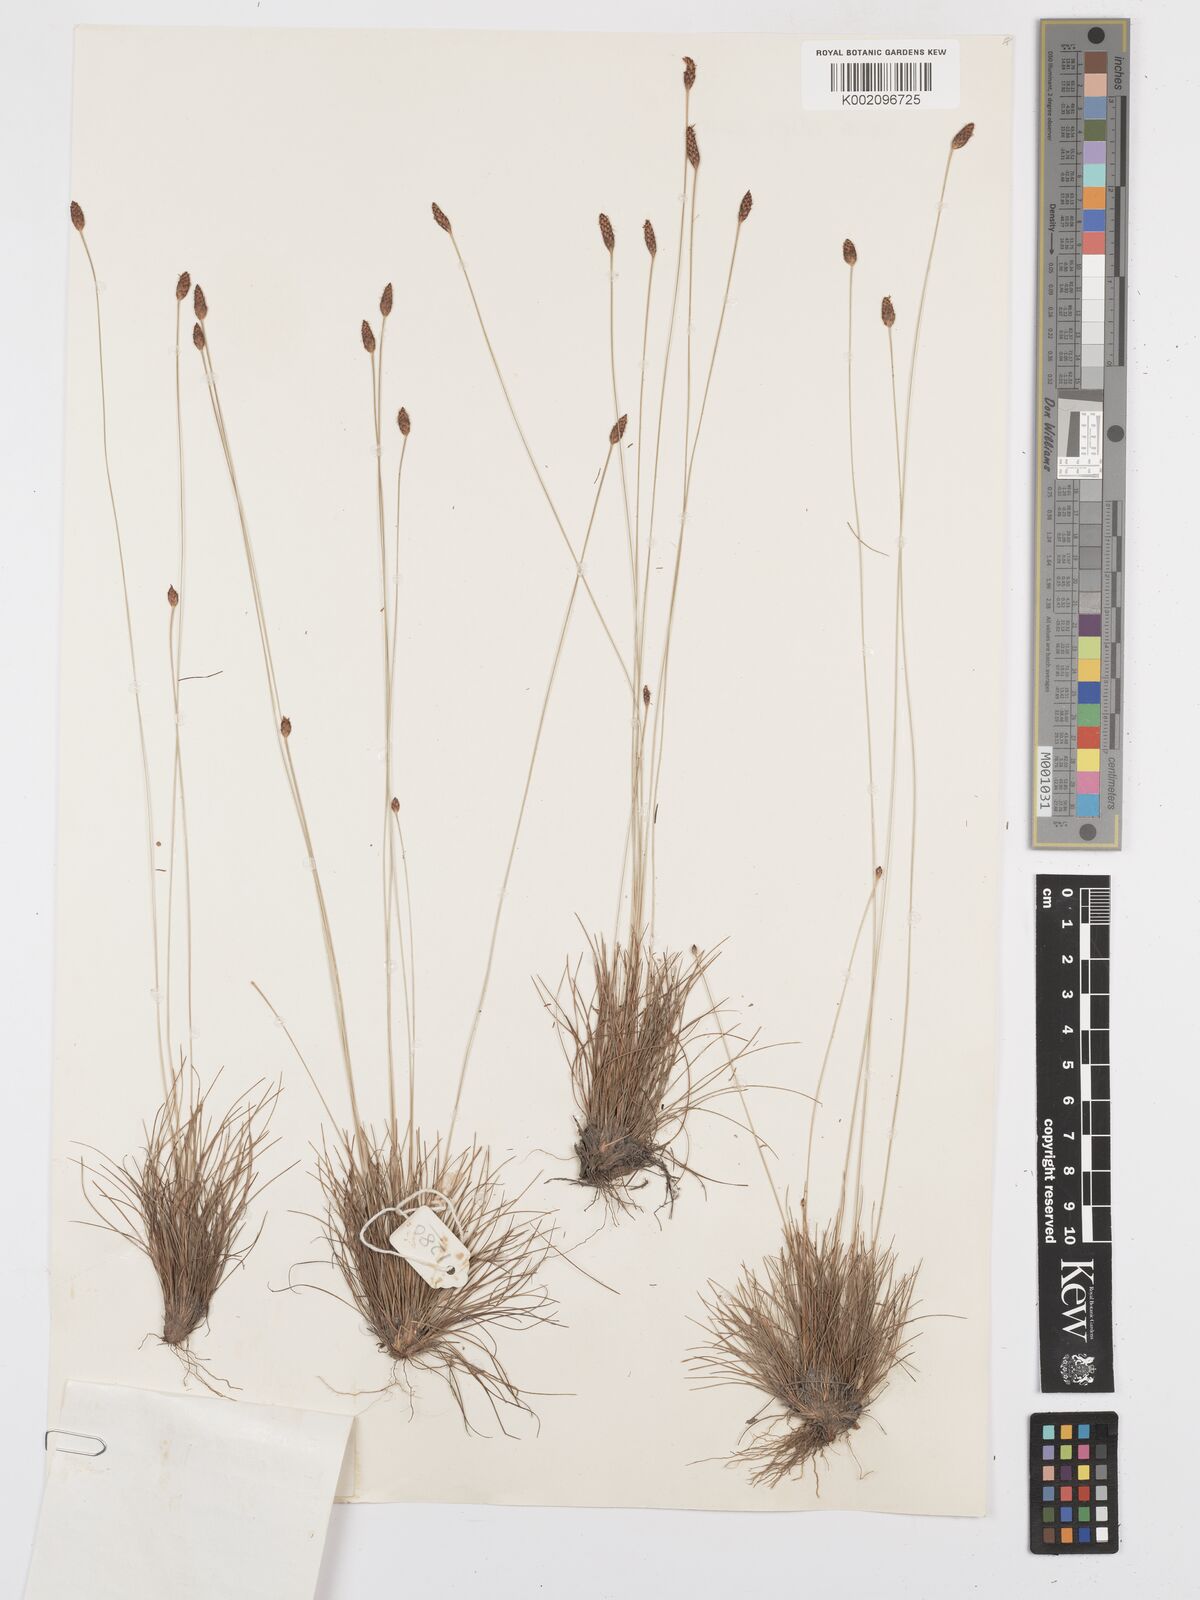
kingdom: Plantae
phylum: Tracheophyta
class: Liliopsida
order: Poales
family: Cyperaceae
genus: Bulbostylis
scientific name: Bulbostylis conifera
